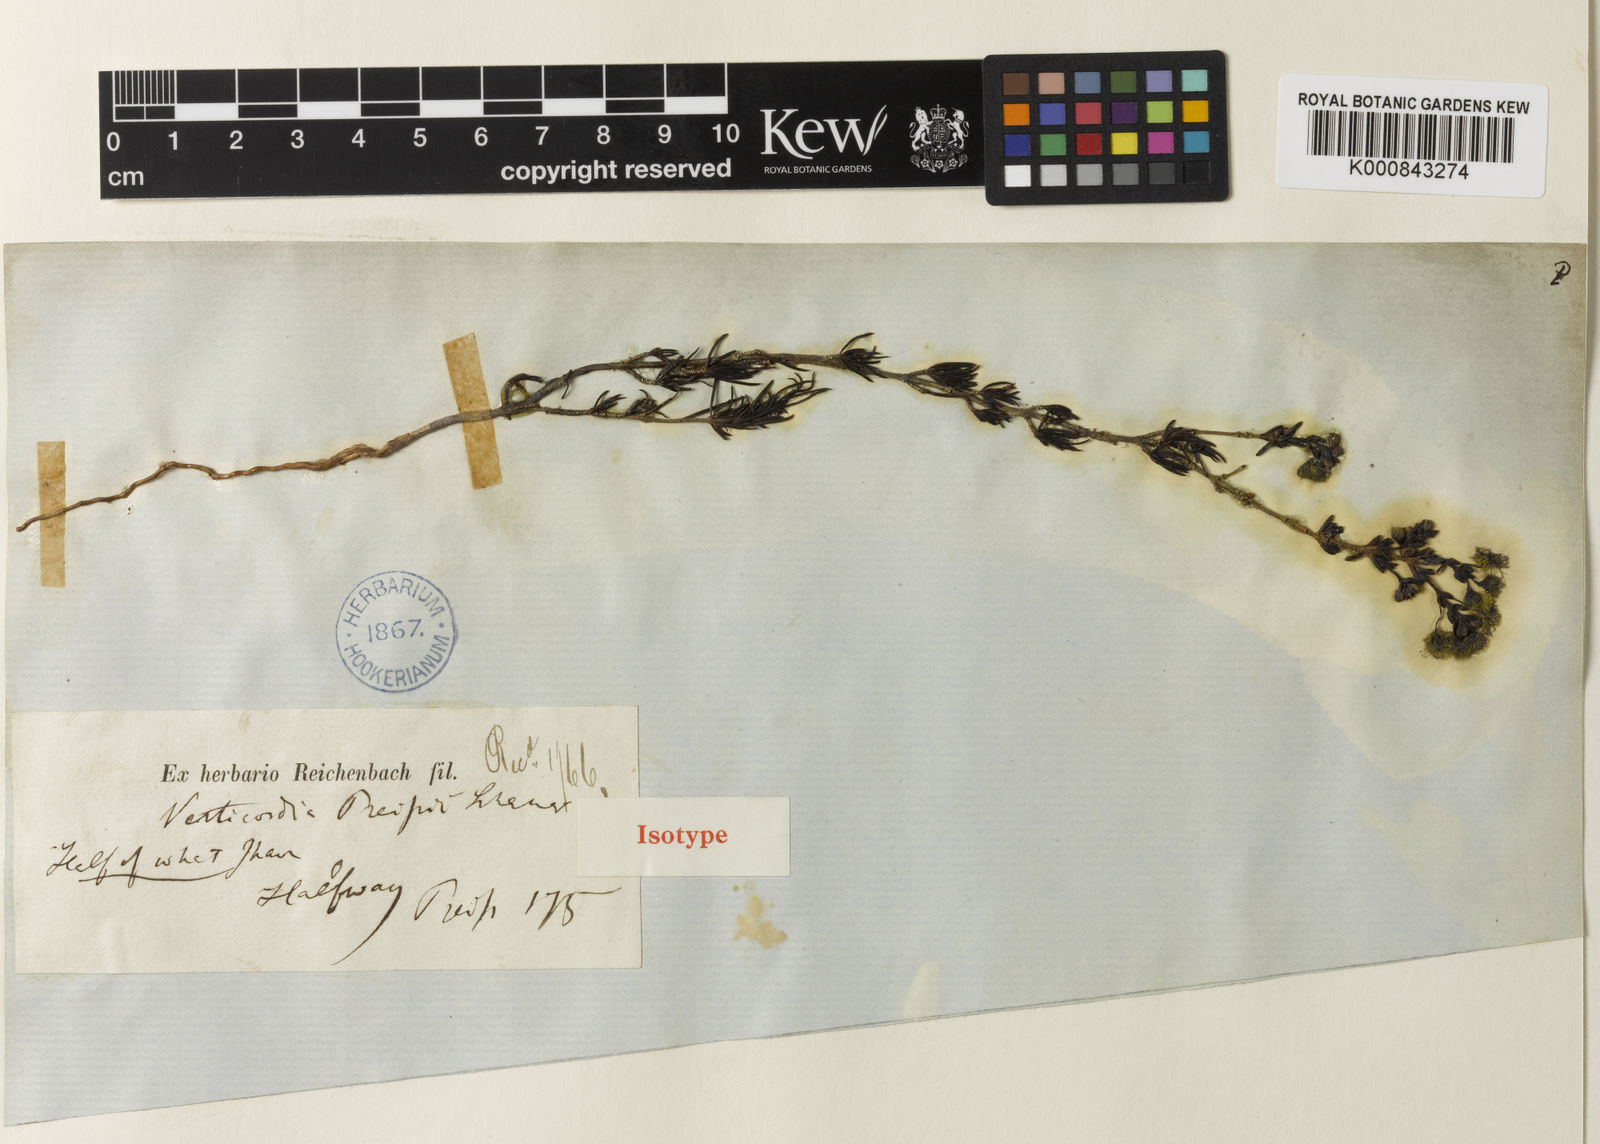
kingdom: Plantae
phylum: Tracheophyta
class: Magnoliopsida
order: Myrtales
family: Myrtaceae
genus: Verticordia
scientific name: Verticordia acerosa
